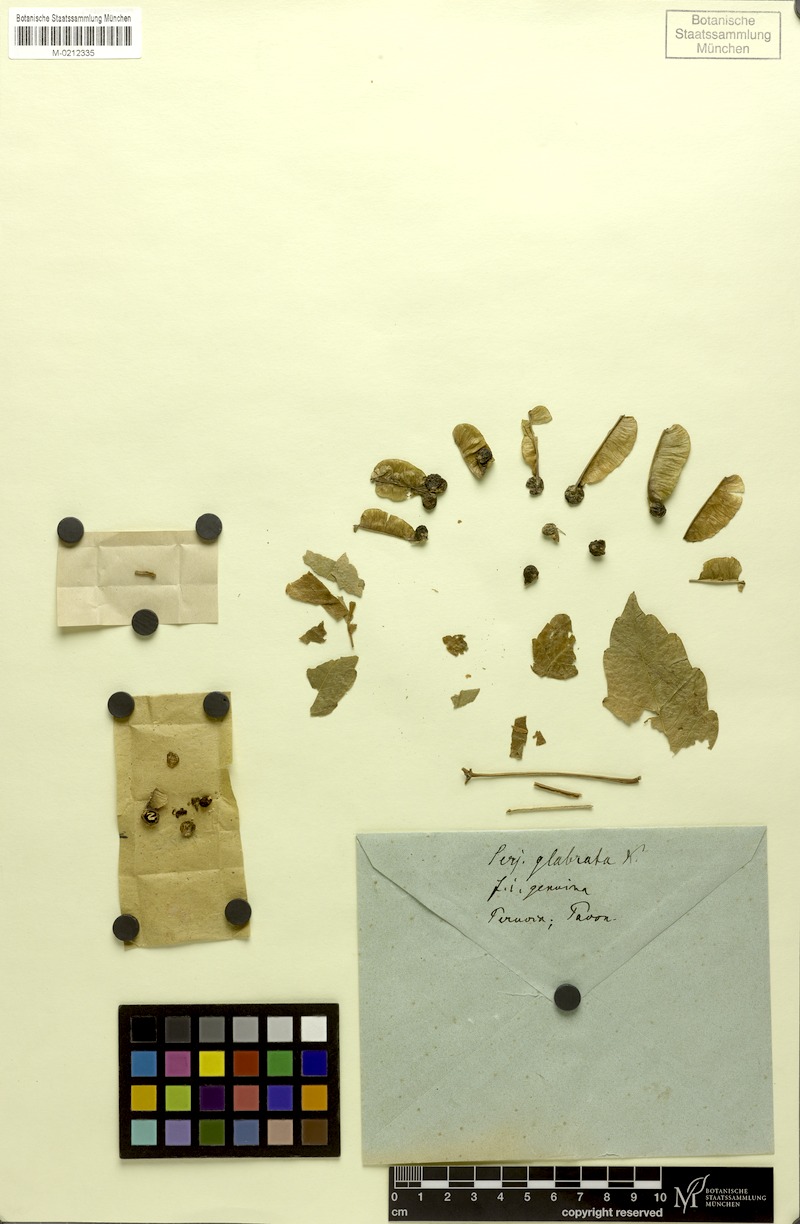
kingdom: Plantae
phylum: Tracheophyta
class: Magnoliopsida
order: Sapindales
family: Sapindaceae
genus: Serjania
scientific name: Serjania glabrata
